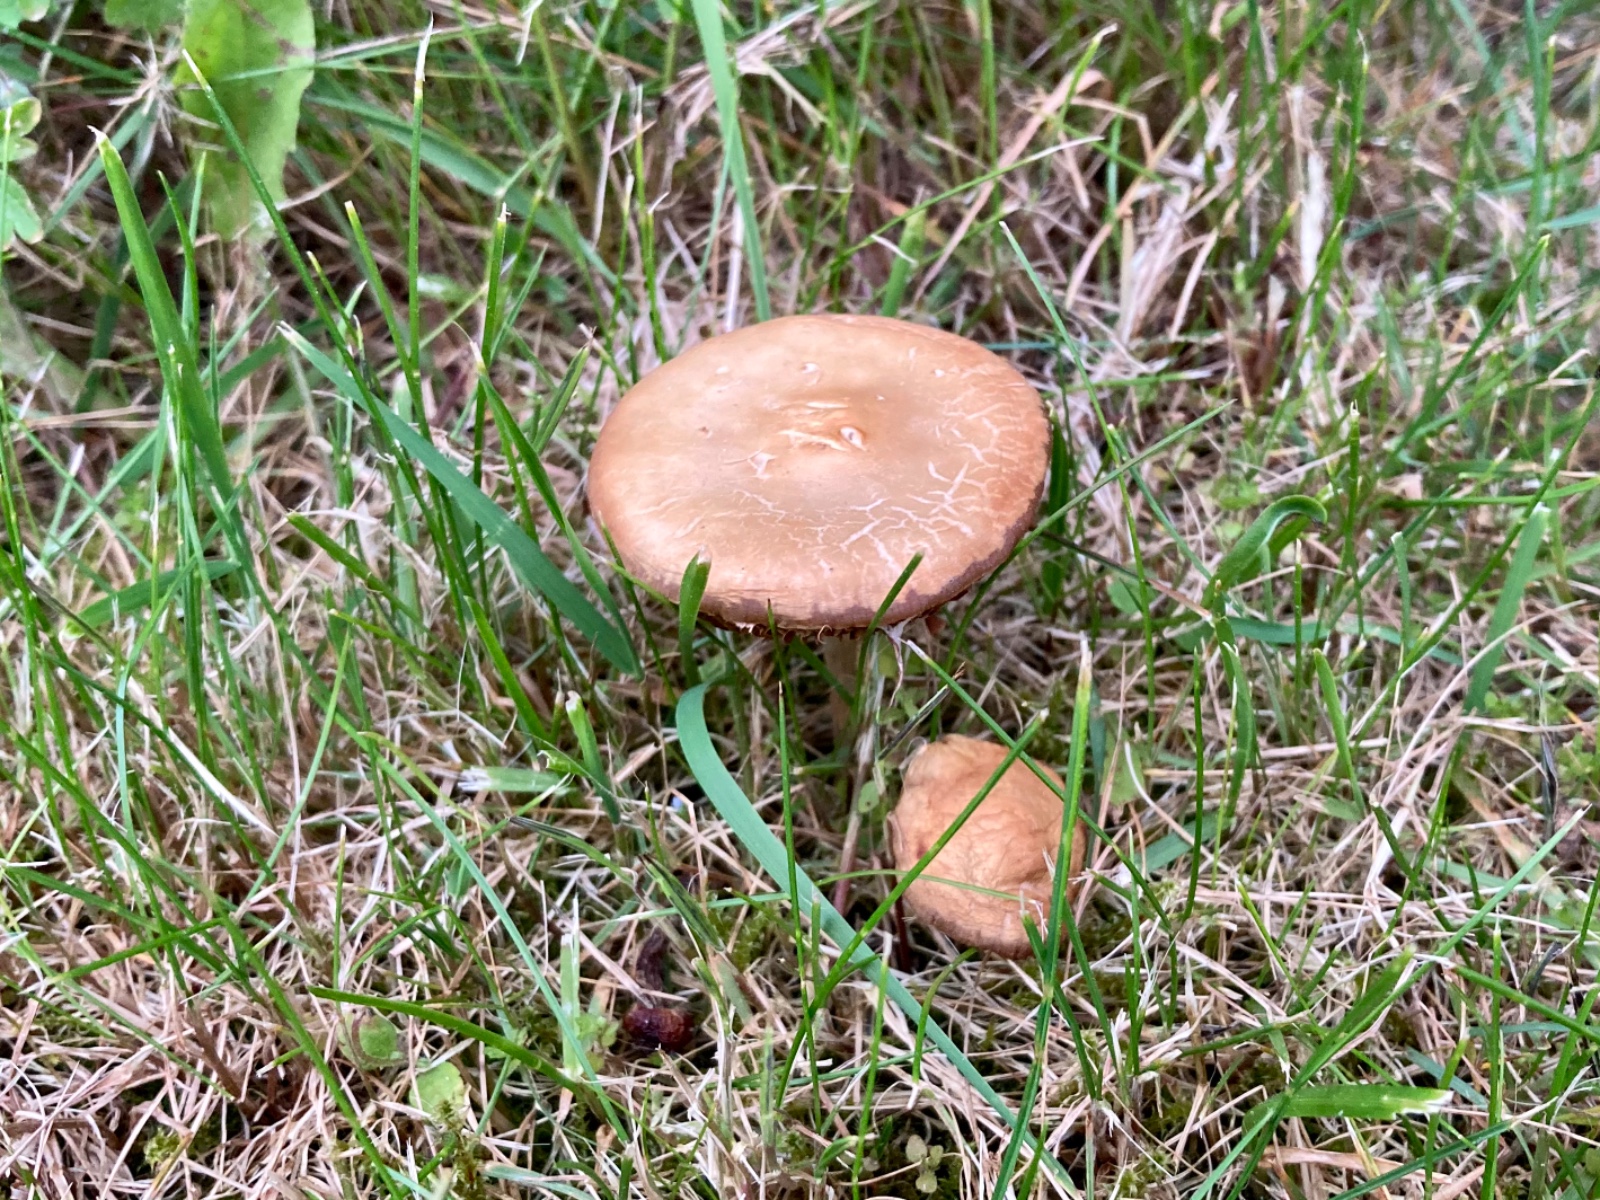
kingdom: Fungi
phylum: Basidiomycota
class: Agaricomycetes
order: Agaricales
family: Strophariaceae
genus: Agrocybe
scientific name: Agrocybe praecox
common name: tidlig agerhat
